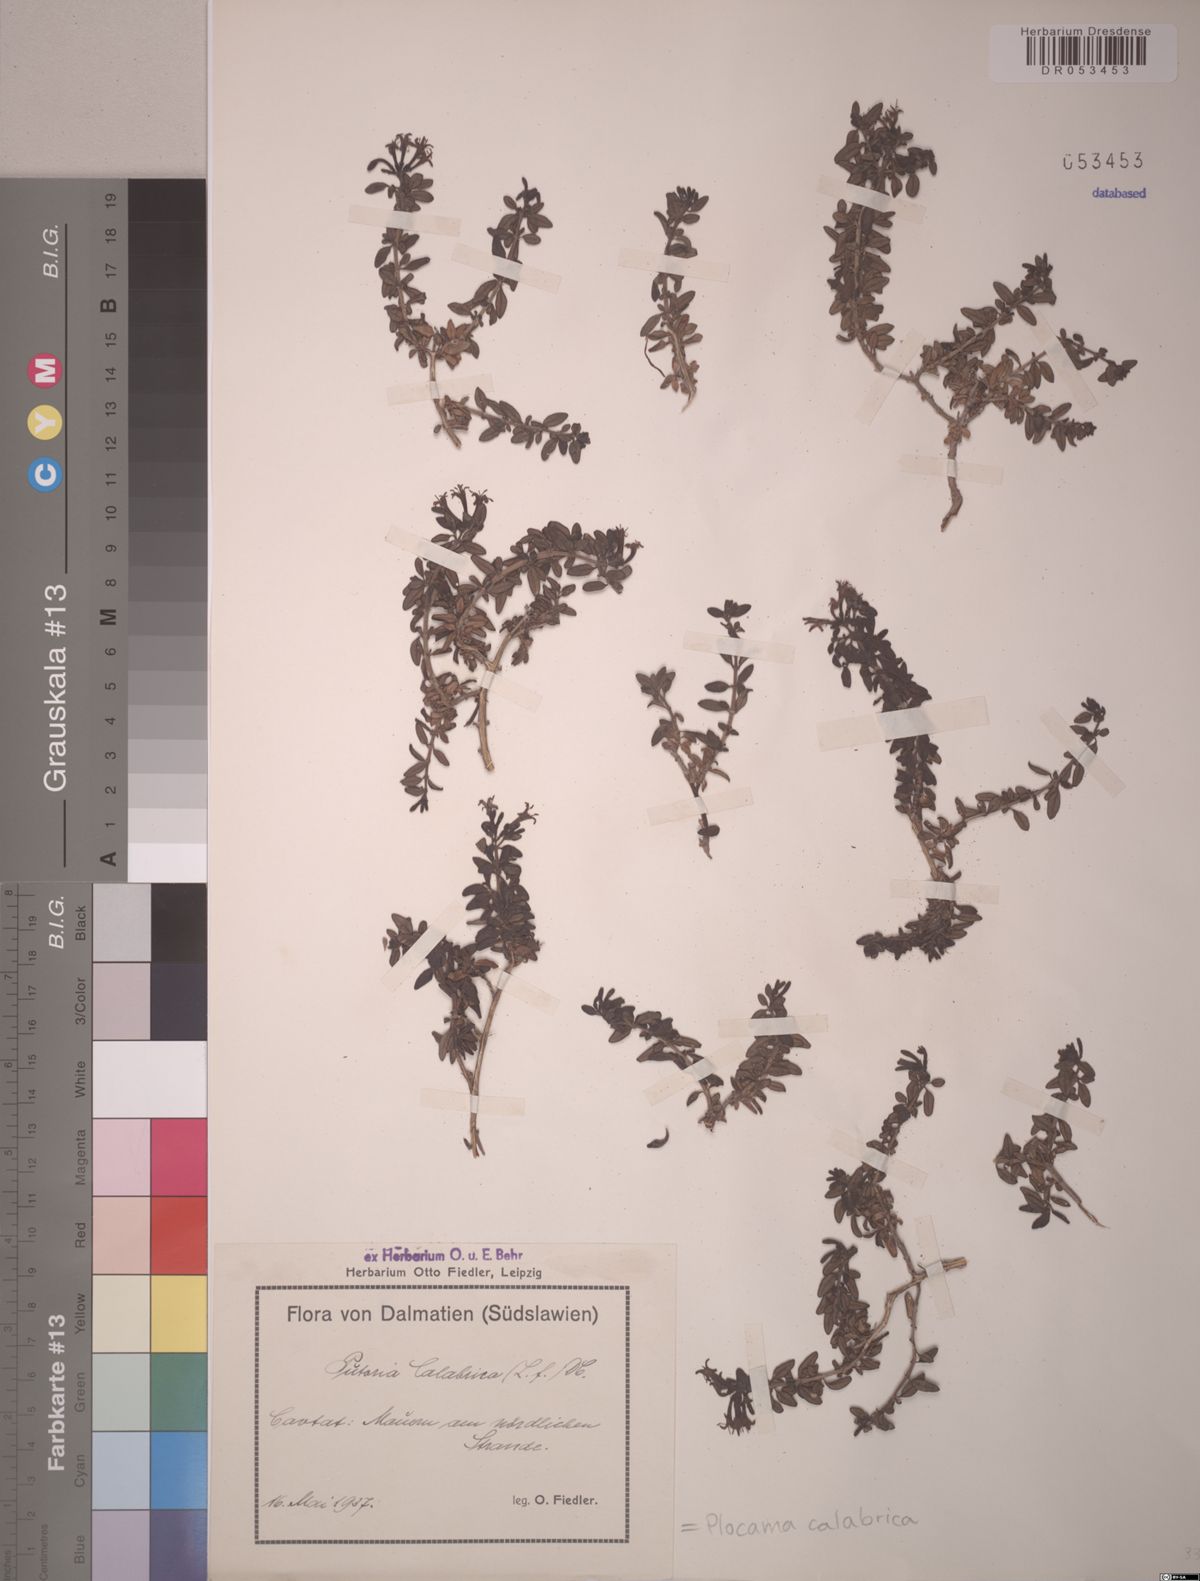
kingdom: Plantae
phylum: Tracheophyta
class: Magnoliopsida
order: Gentianales
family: Rubiaceae
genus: Plocama
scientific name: Plocama calabrica
